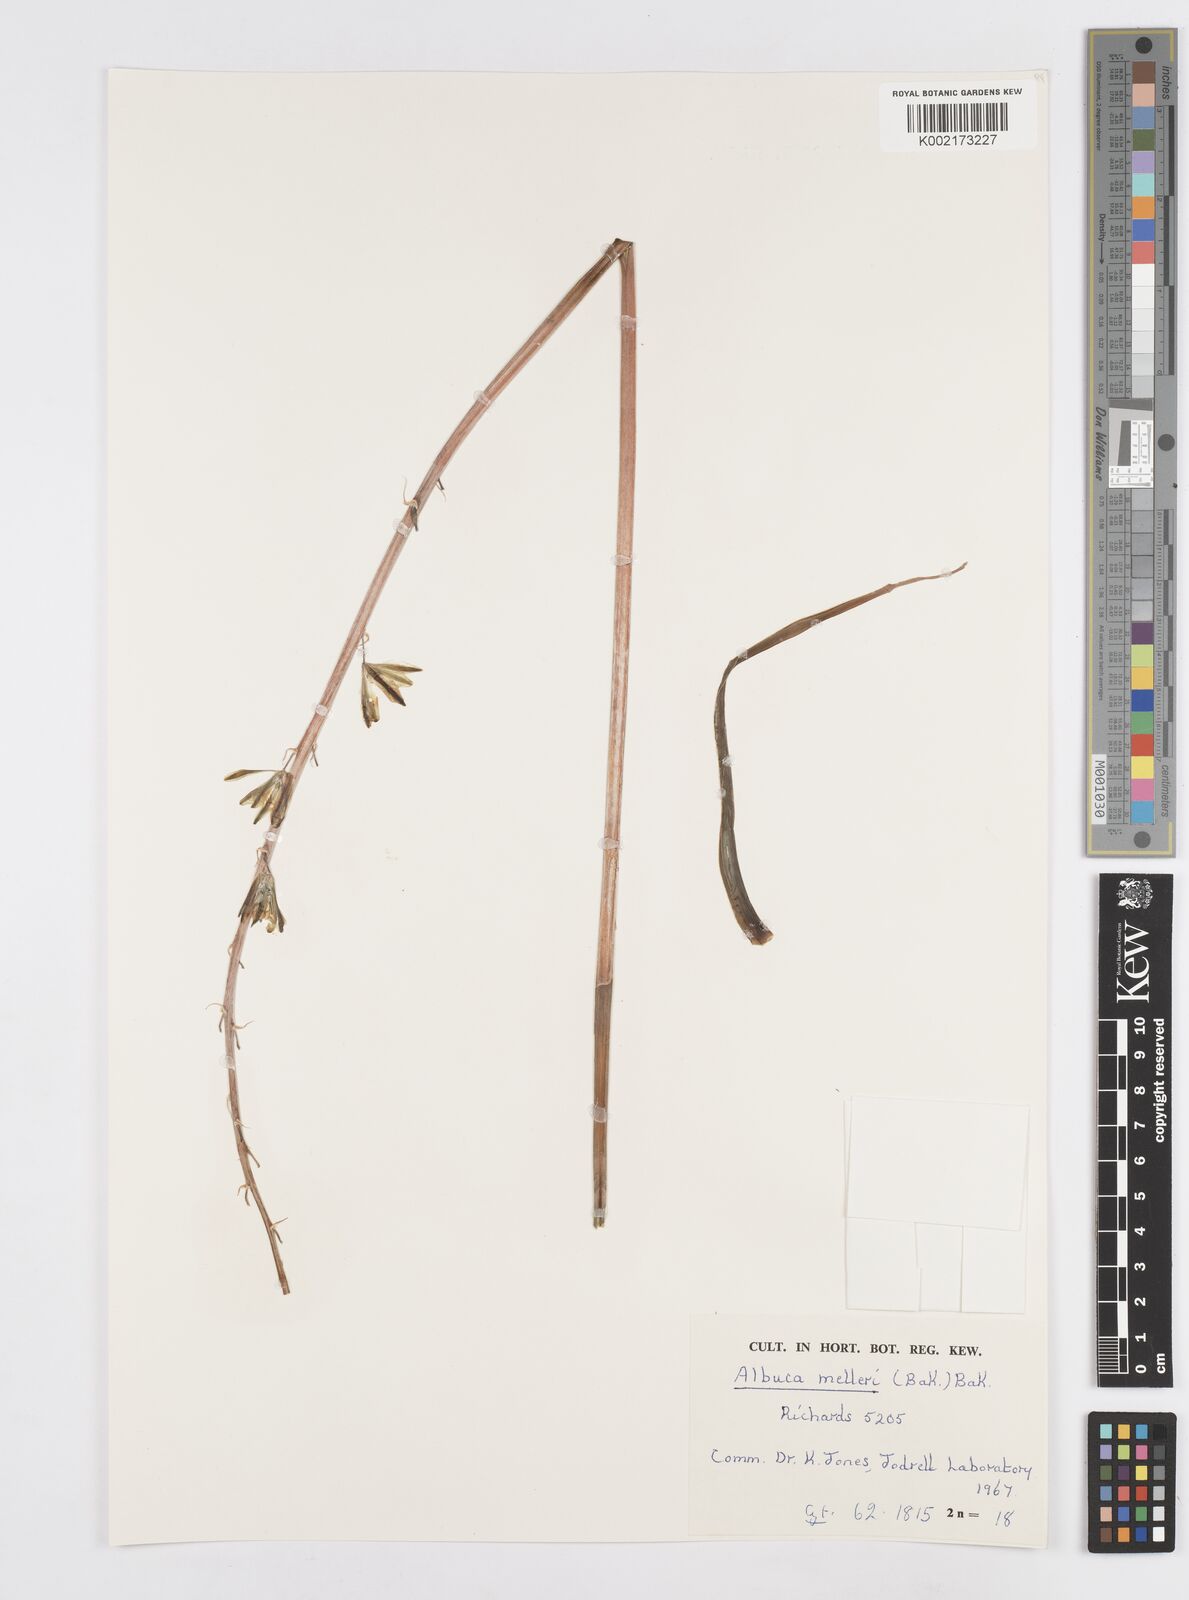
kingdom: Plantae
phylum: Tracheophyta
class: Liliopsida
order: Asparagales
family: Asparagaceae
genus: Albuca
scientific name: Albuca abyssinica
